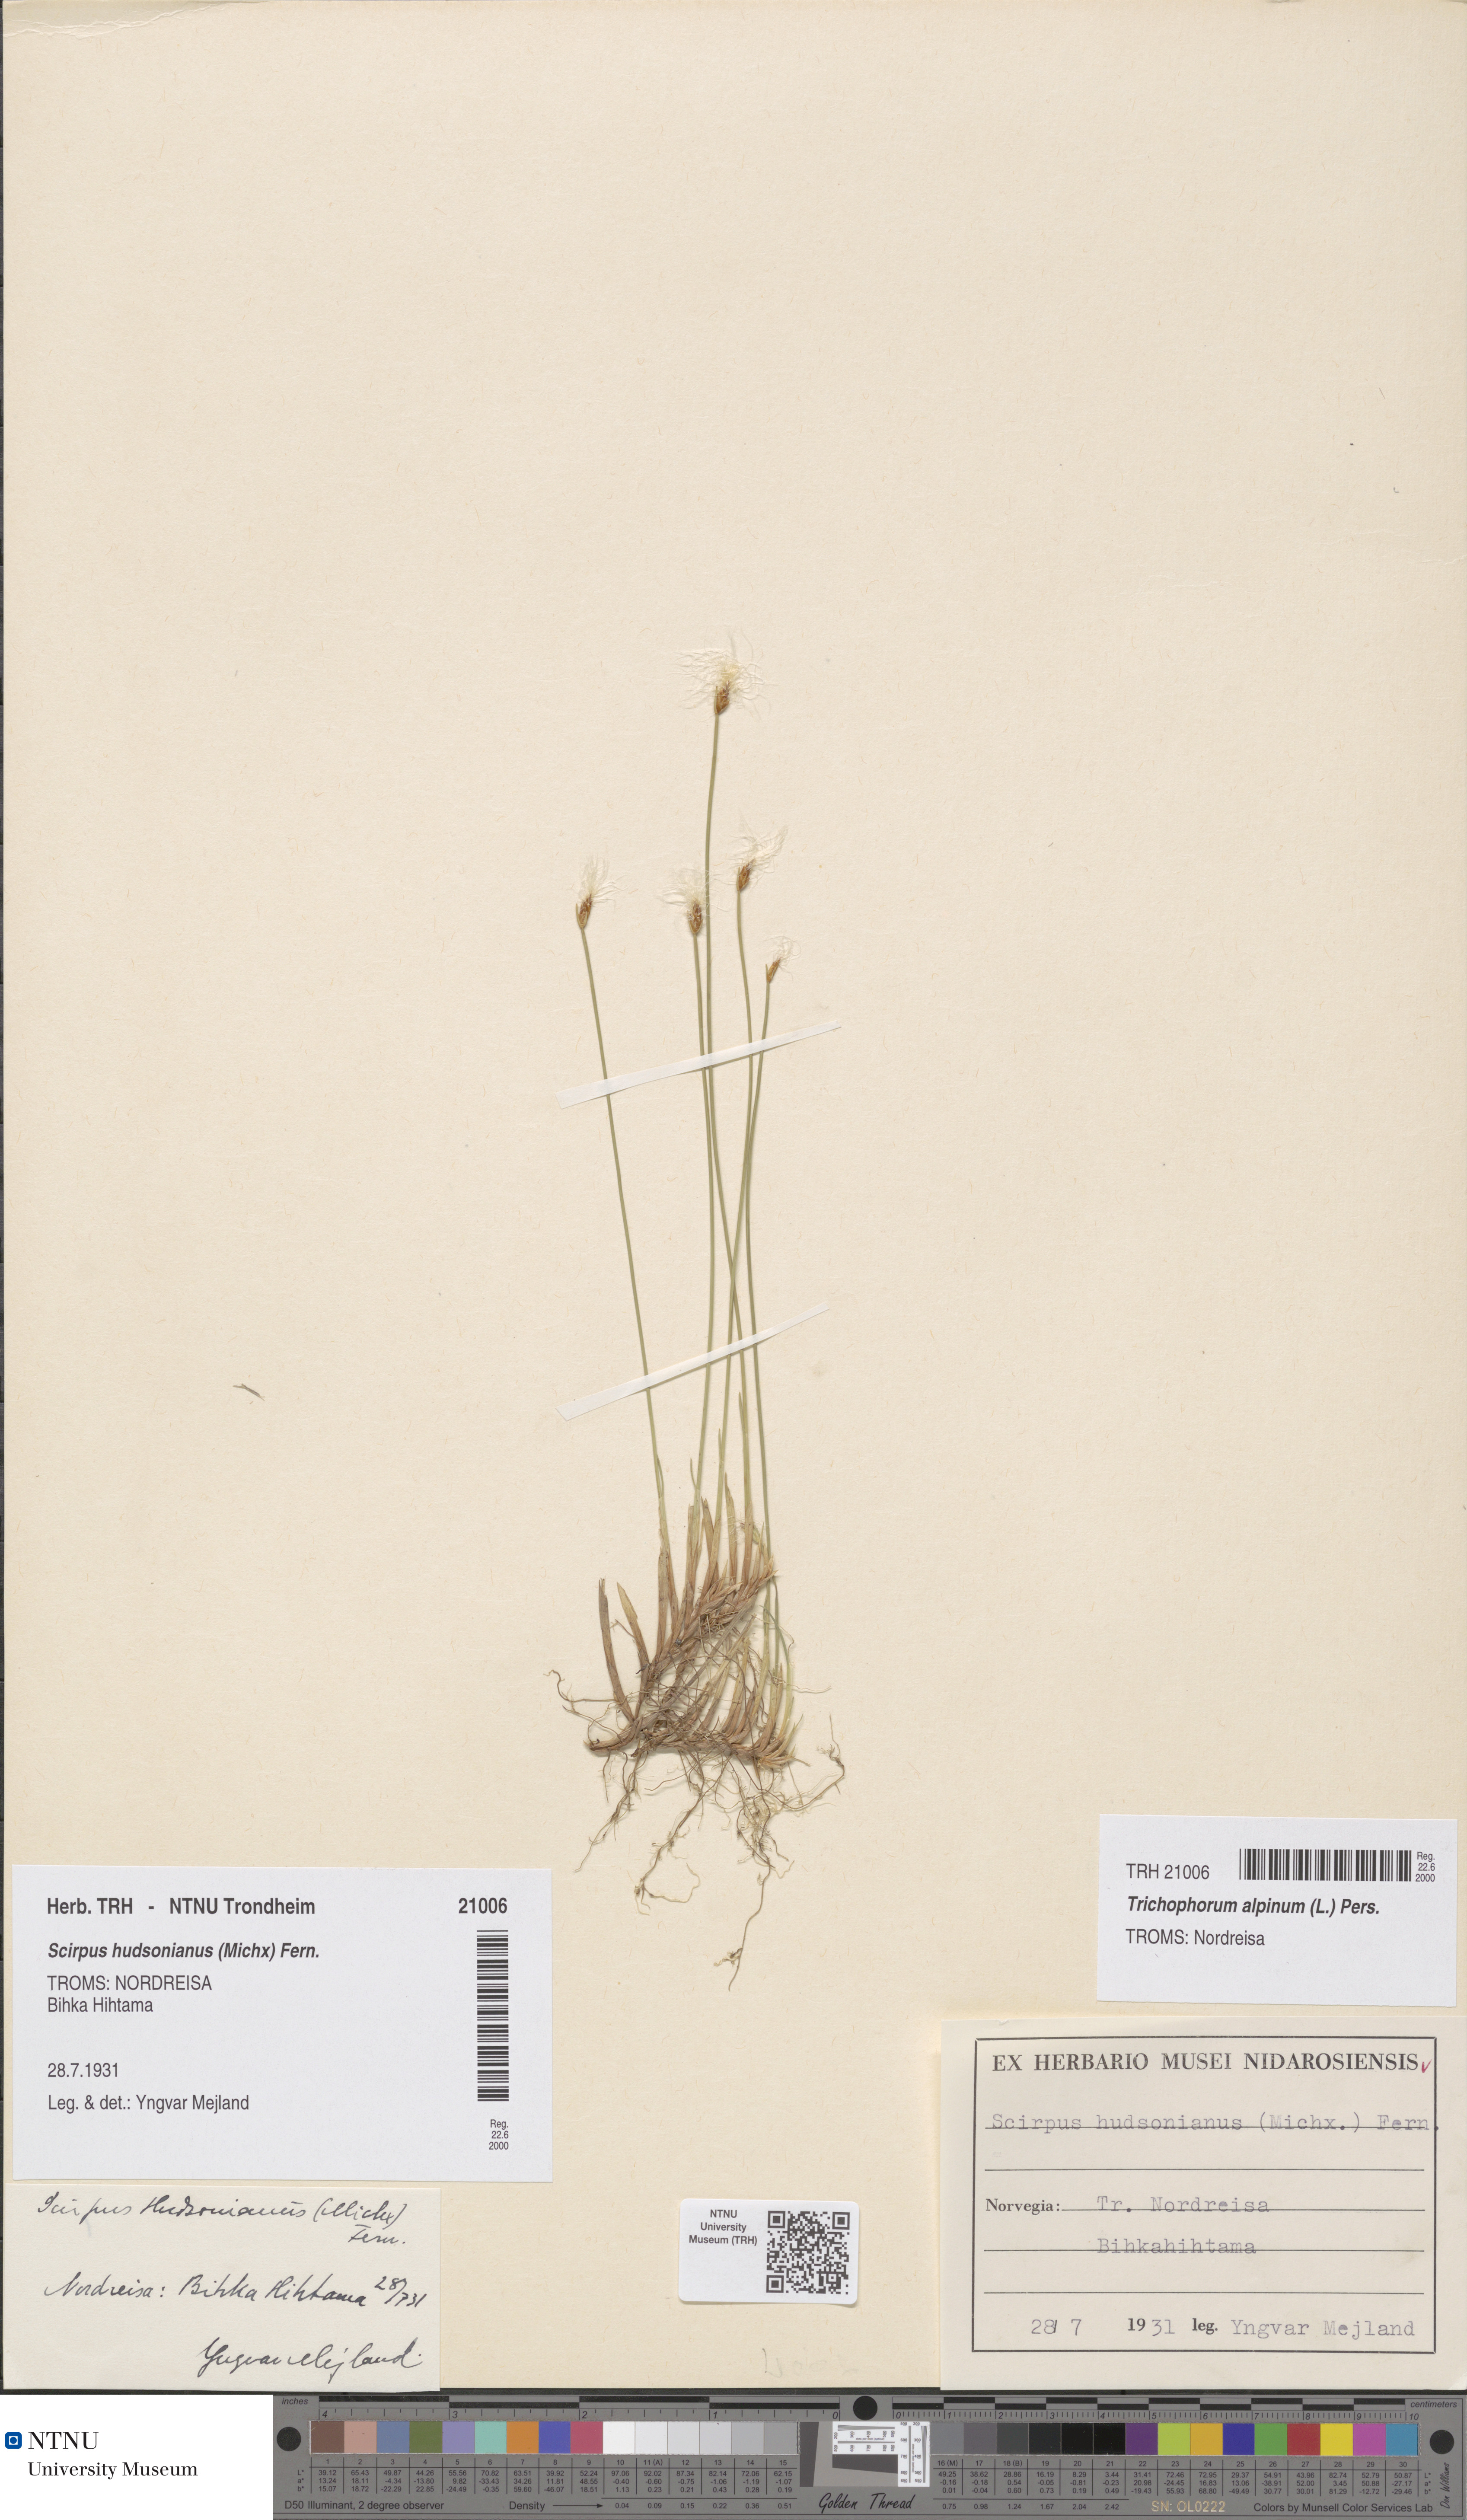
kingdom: Plantae
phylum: Tracheophyta
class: Liliopsida
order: Poales
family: Cyperaceae
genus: Trichophorum
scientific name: Trichophorum alpinum
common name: Alpine bulrush
